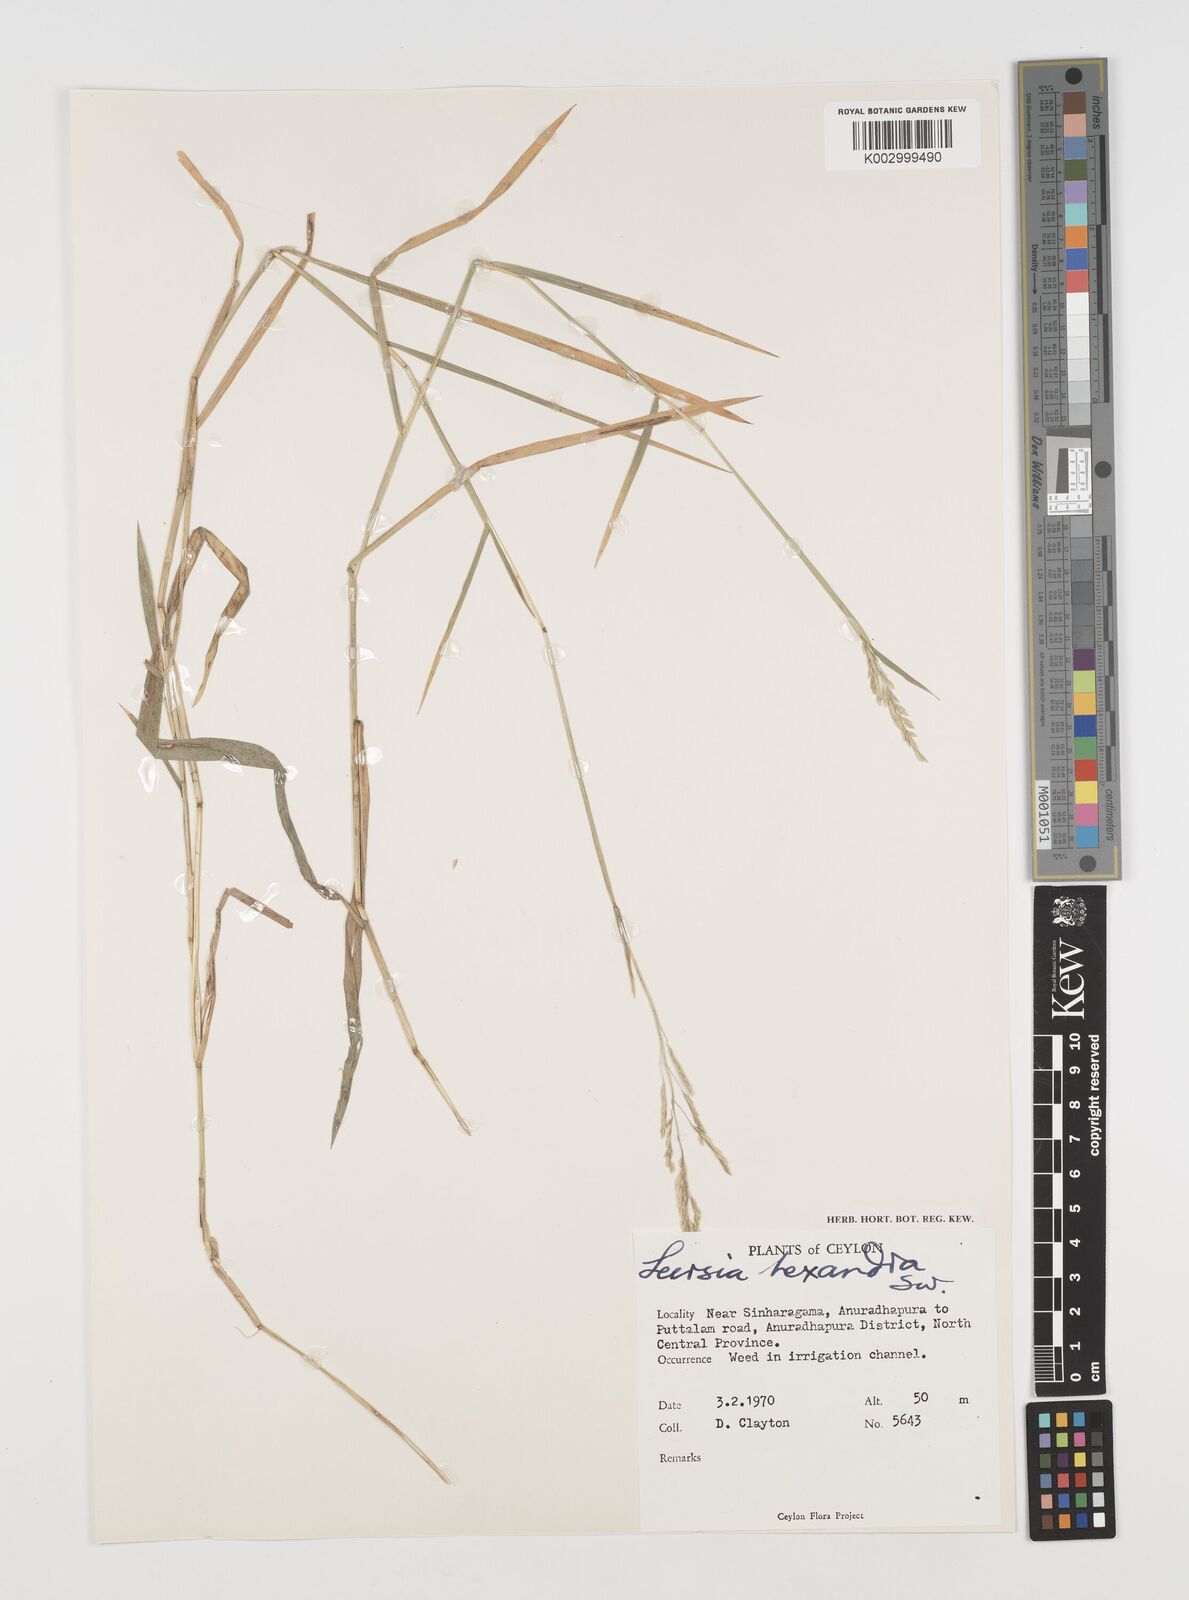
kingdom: Plantae
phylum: Tracheophyta
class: Liliopsida
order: Poales
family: Poaceae
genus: Leersia
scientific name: Leersia hexandra
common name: Southern cut grass
